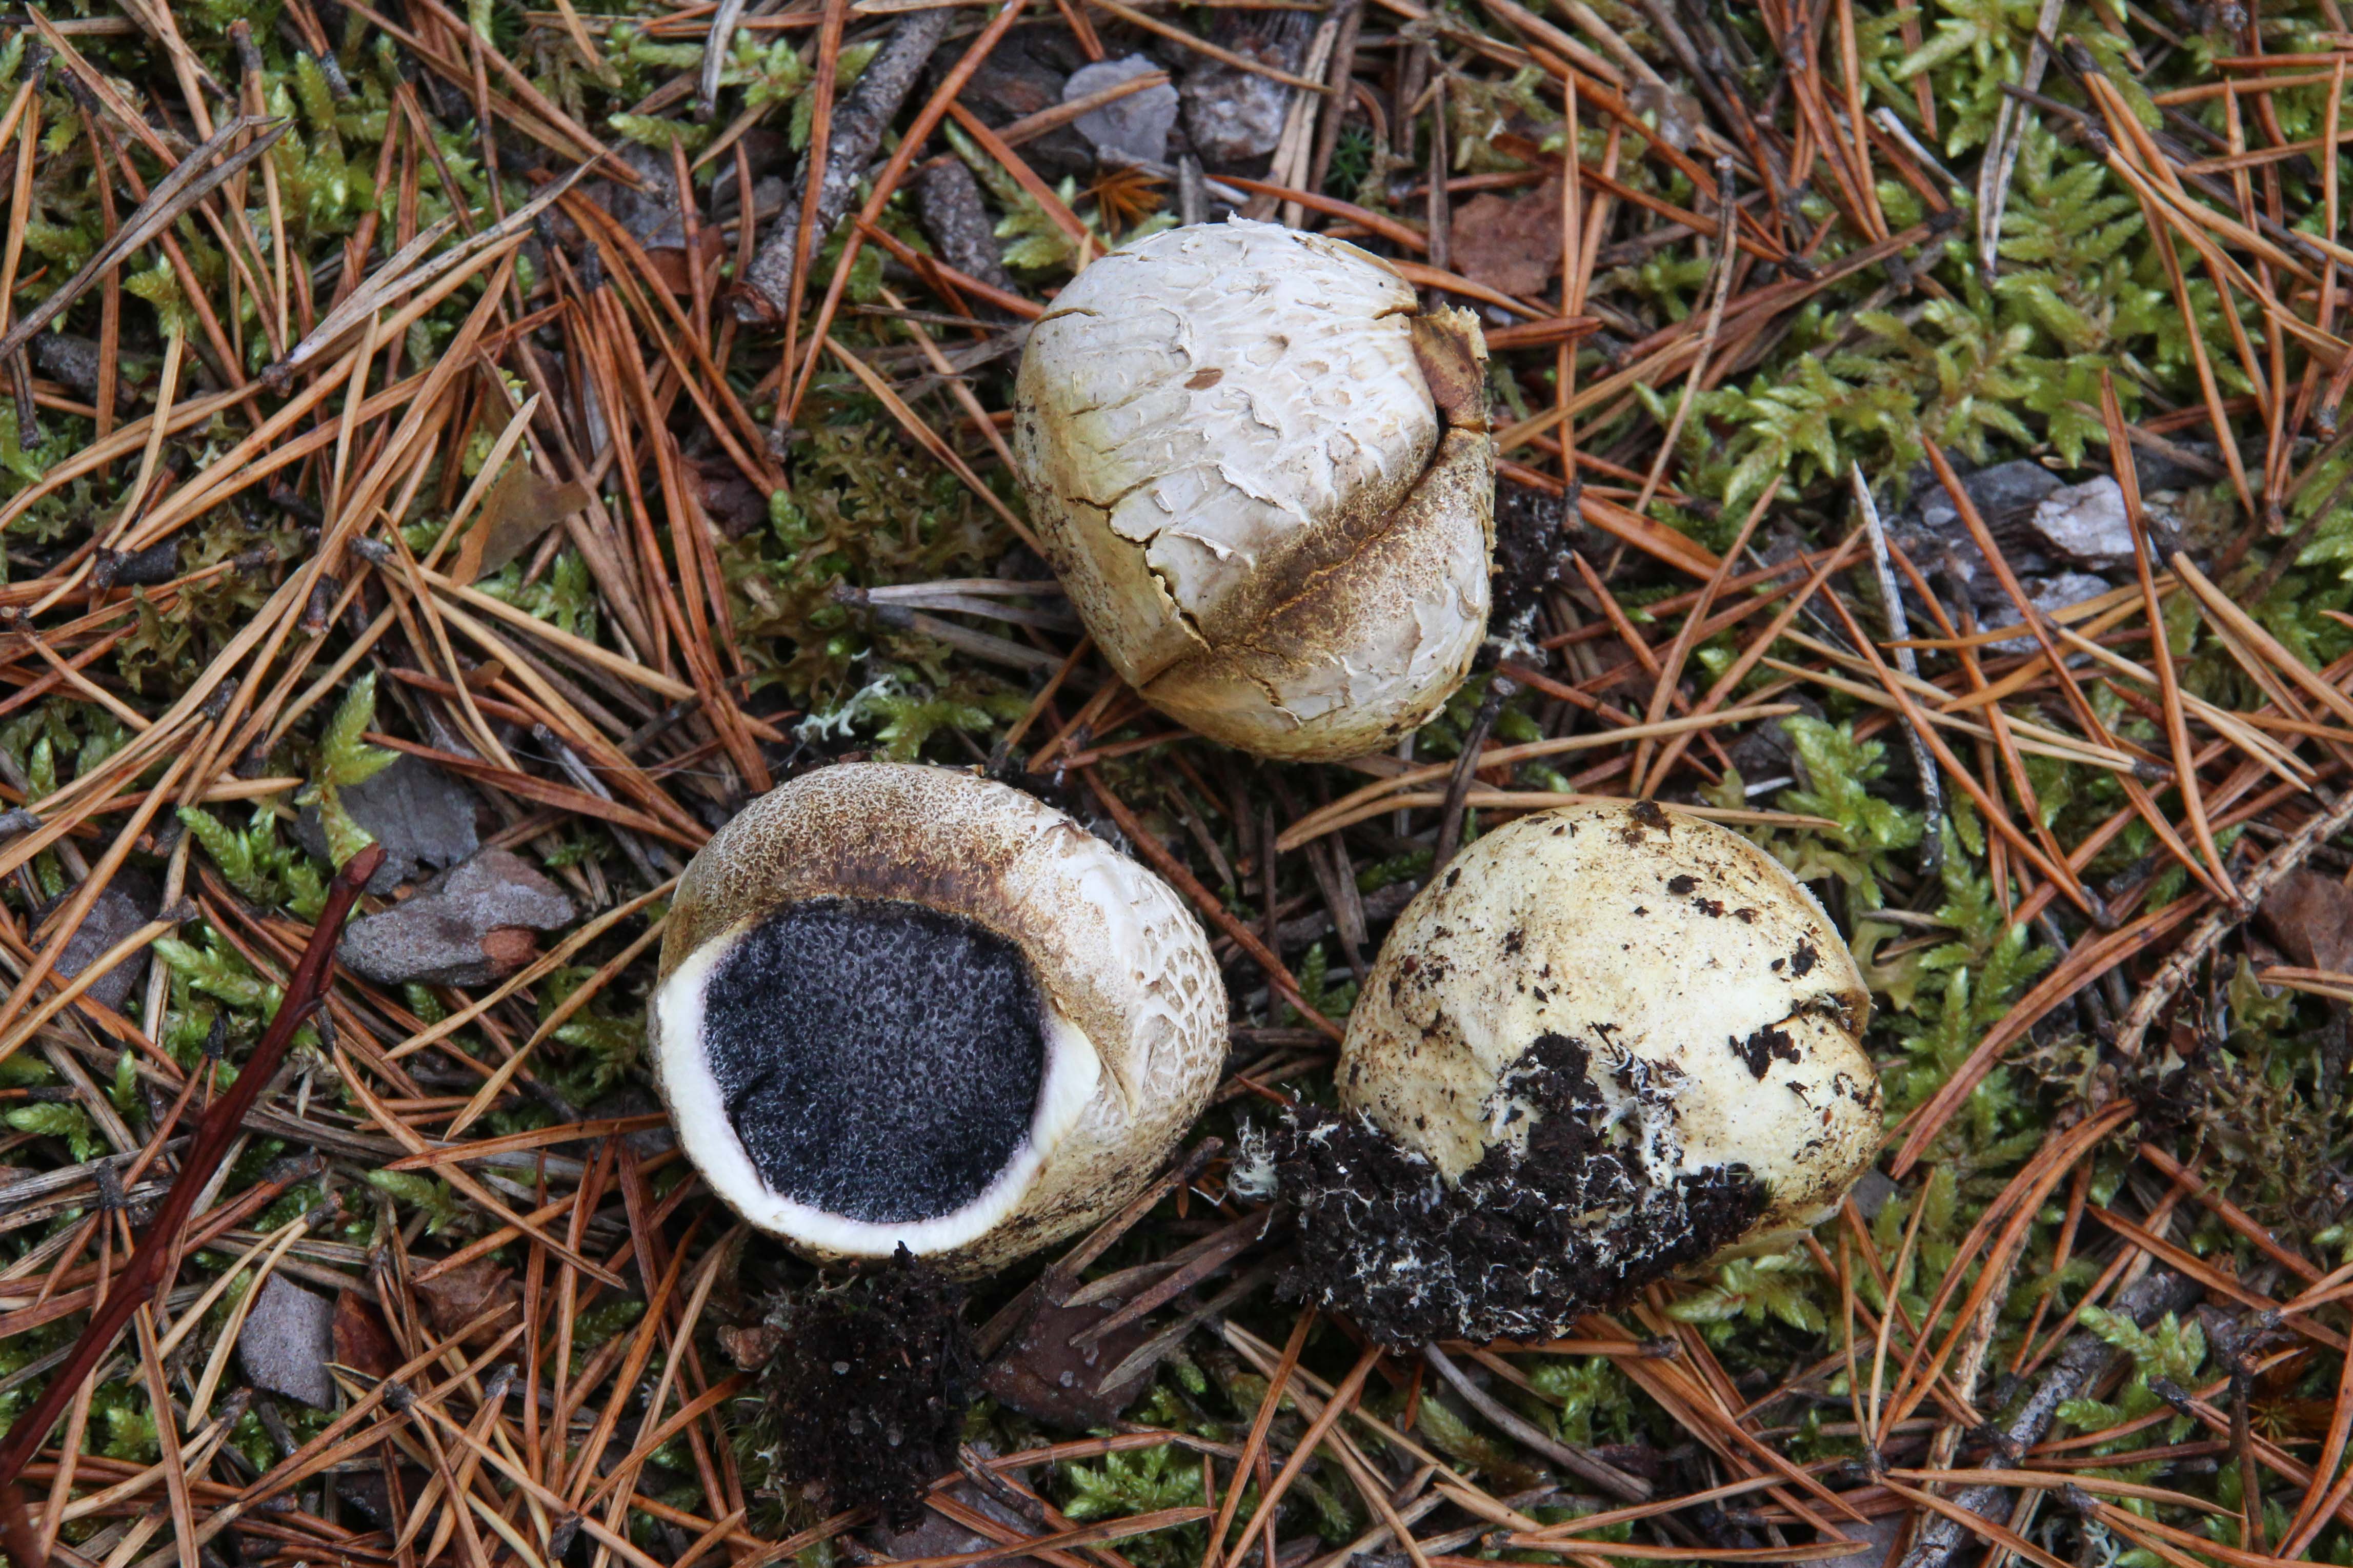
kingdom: Fungi
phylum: Basidiomycota
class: Agaricomycetes
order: Boletales
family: Sclerodermataceae
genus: Scleroderma
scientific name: Scleroderma citrinum
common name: Common earthball
